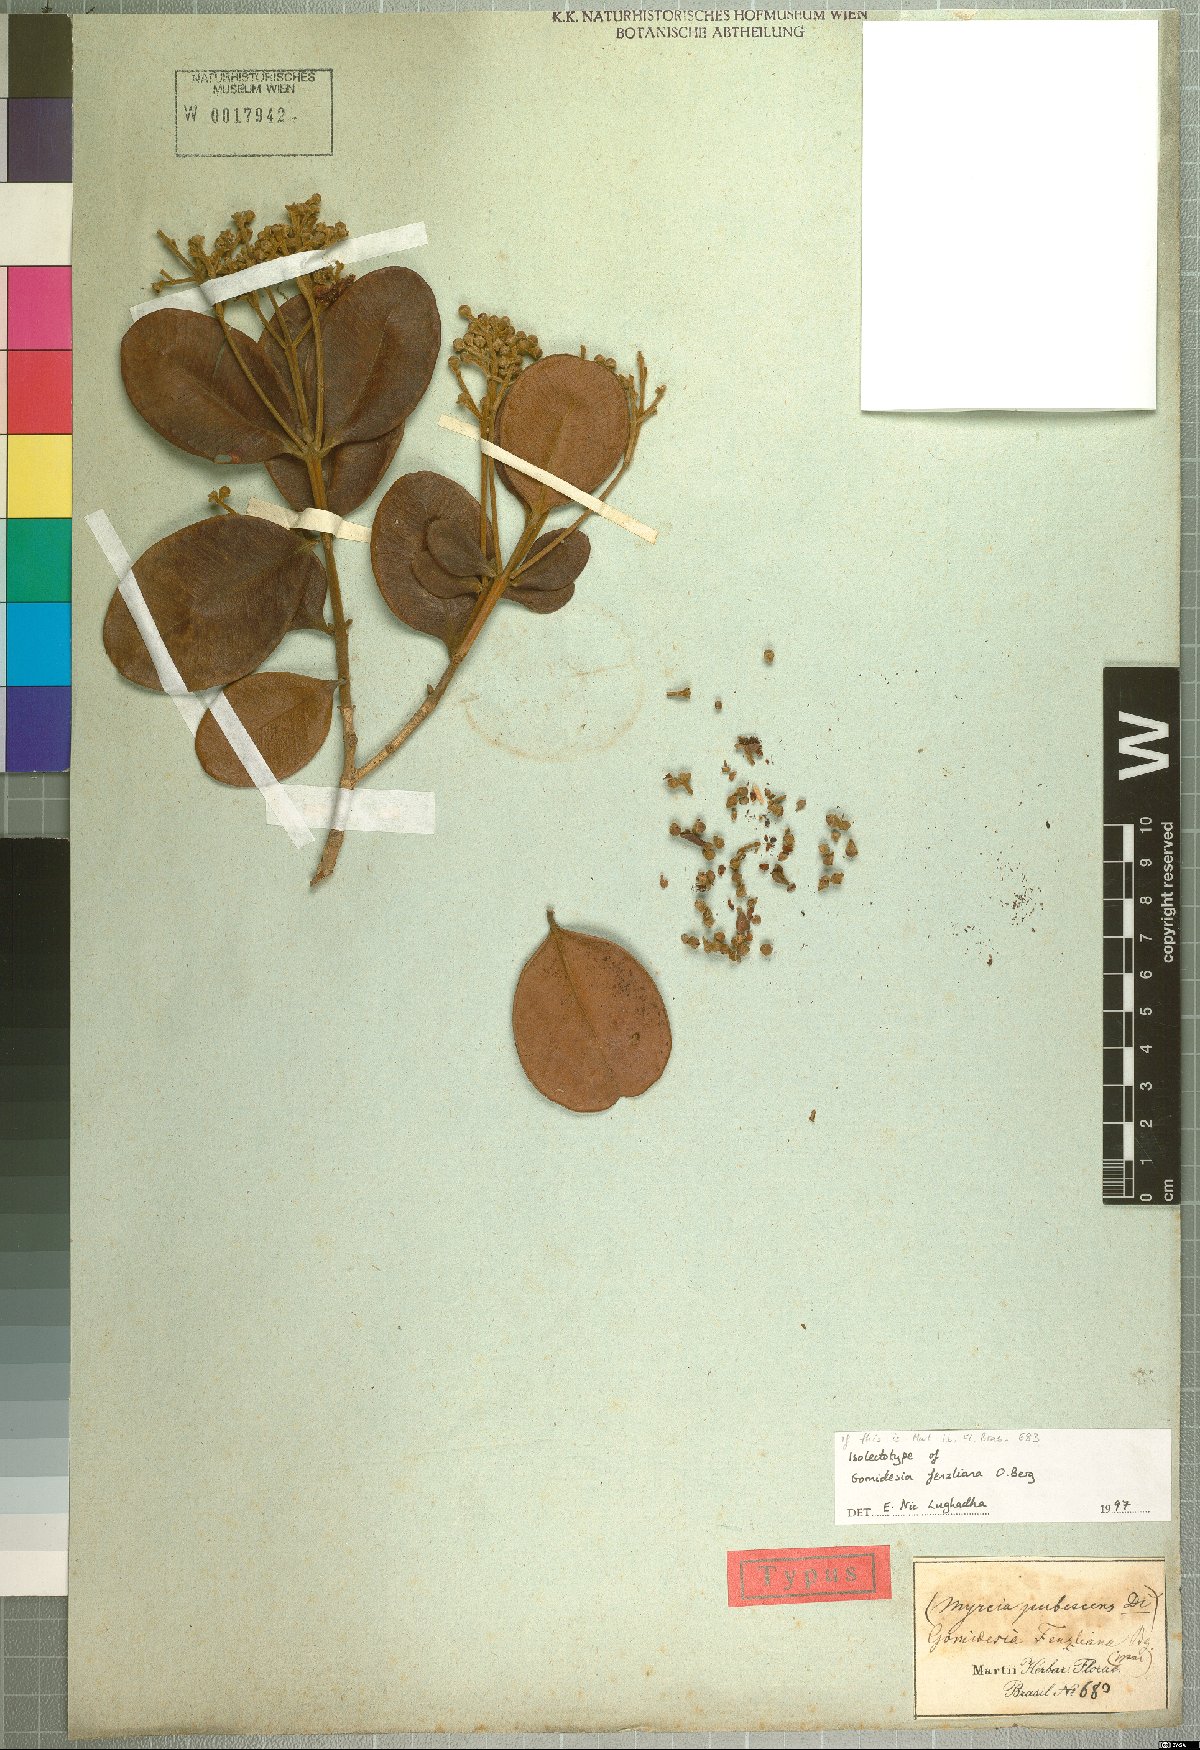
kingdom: Plantae
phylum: Tracheophyta
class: Magnoliopsida
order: Myrtales
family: Myrtaceae
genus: Myrcia
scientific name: Myrcia ilheosensis
